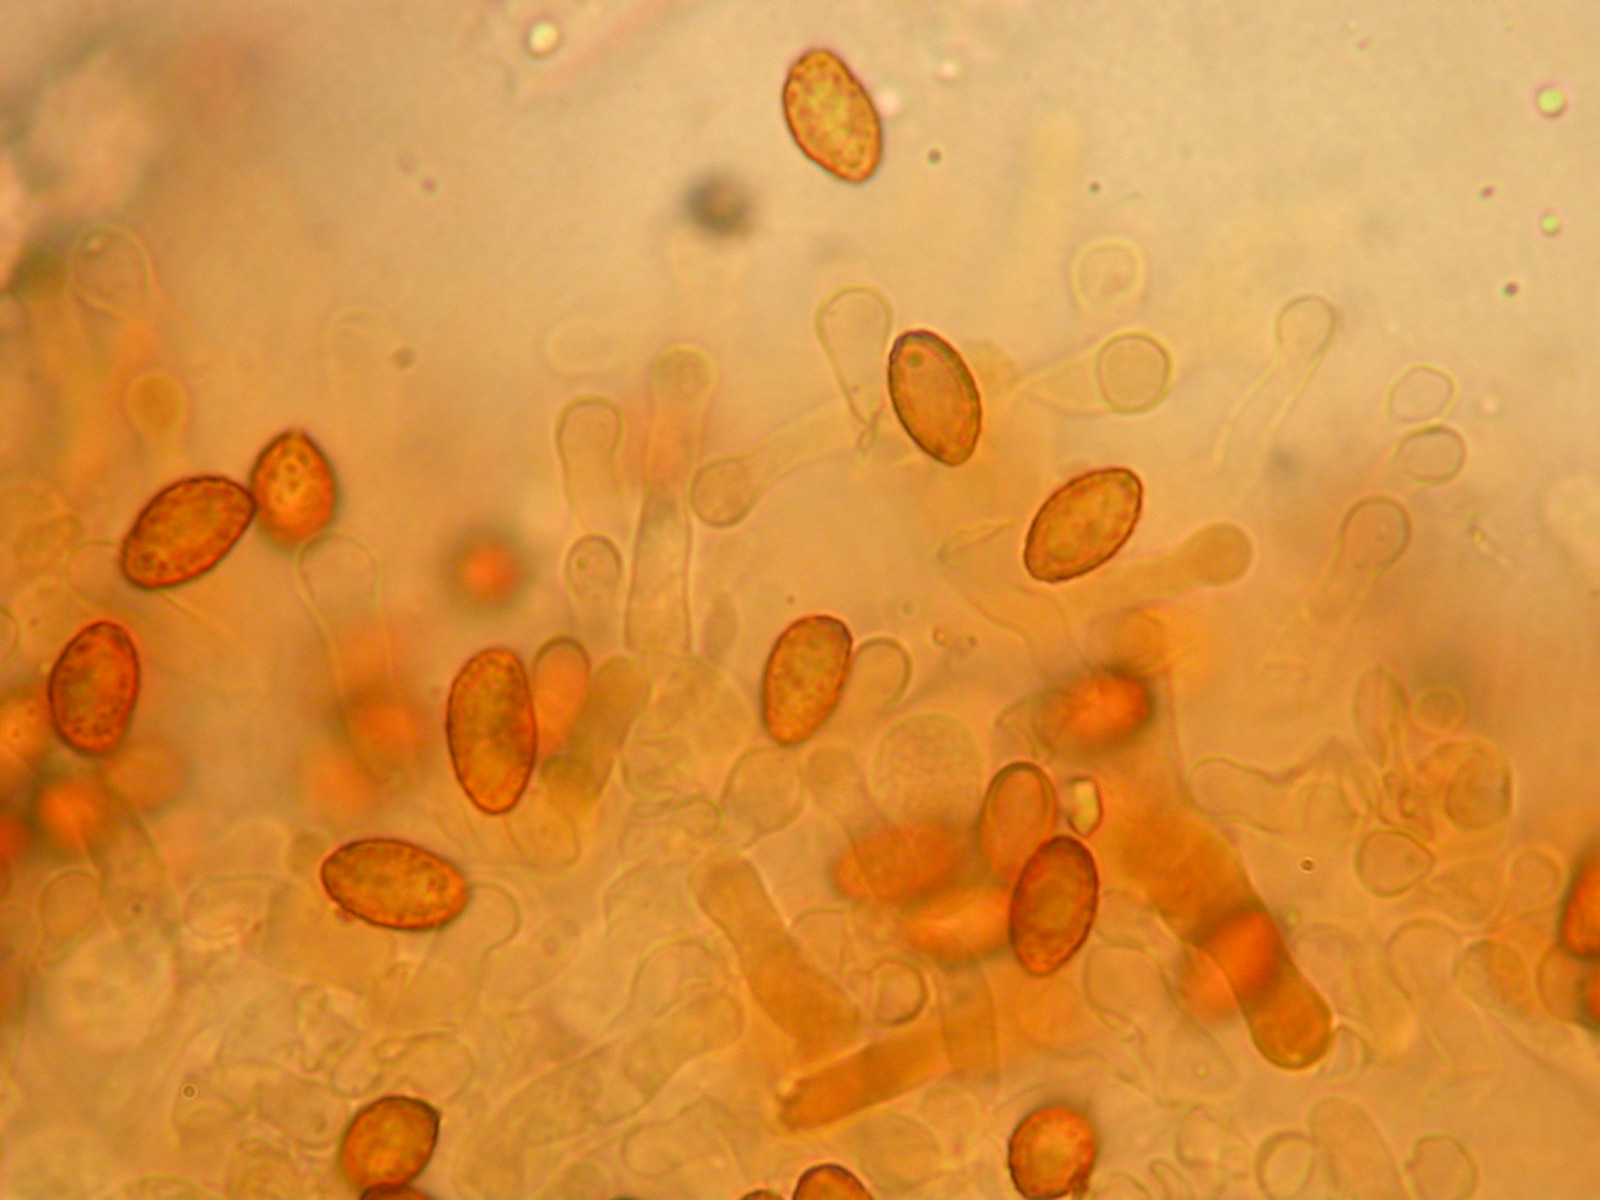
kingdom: Fungi
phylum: Basidiomycota
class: Agaricomycetes
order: Agaricales
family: Hymenogastraceae
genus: Gymnopilus
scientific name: Gymnopilus odini
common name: kul-flammehat
